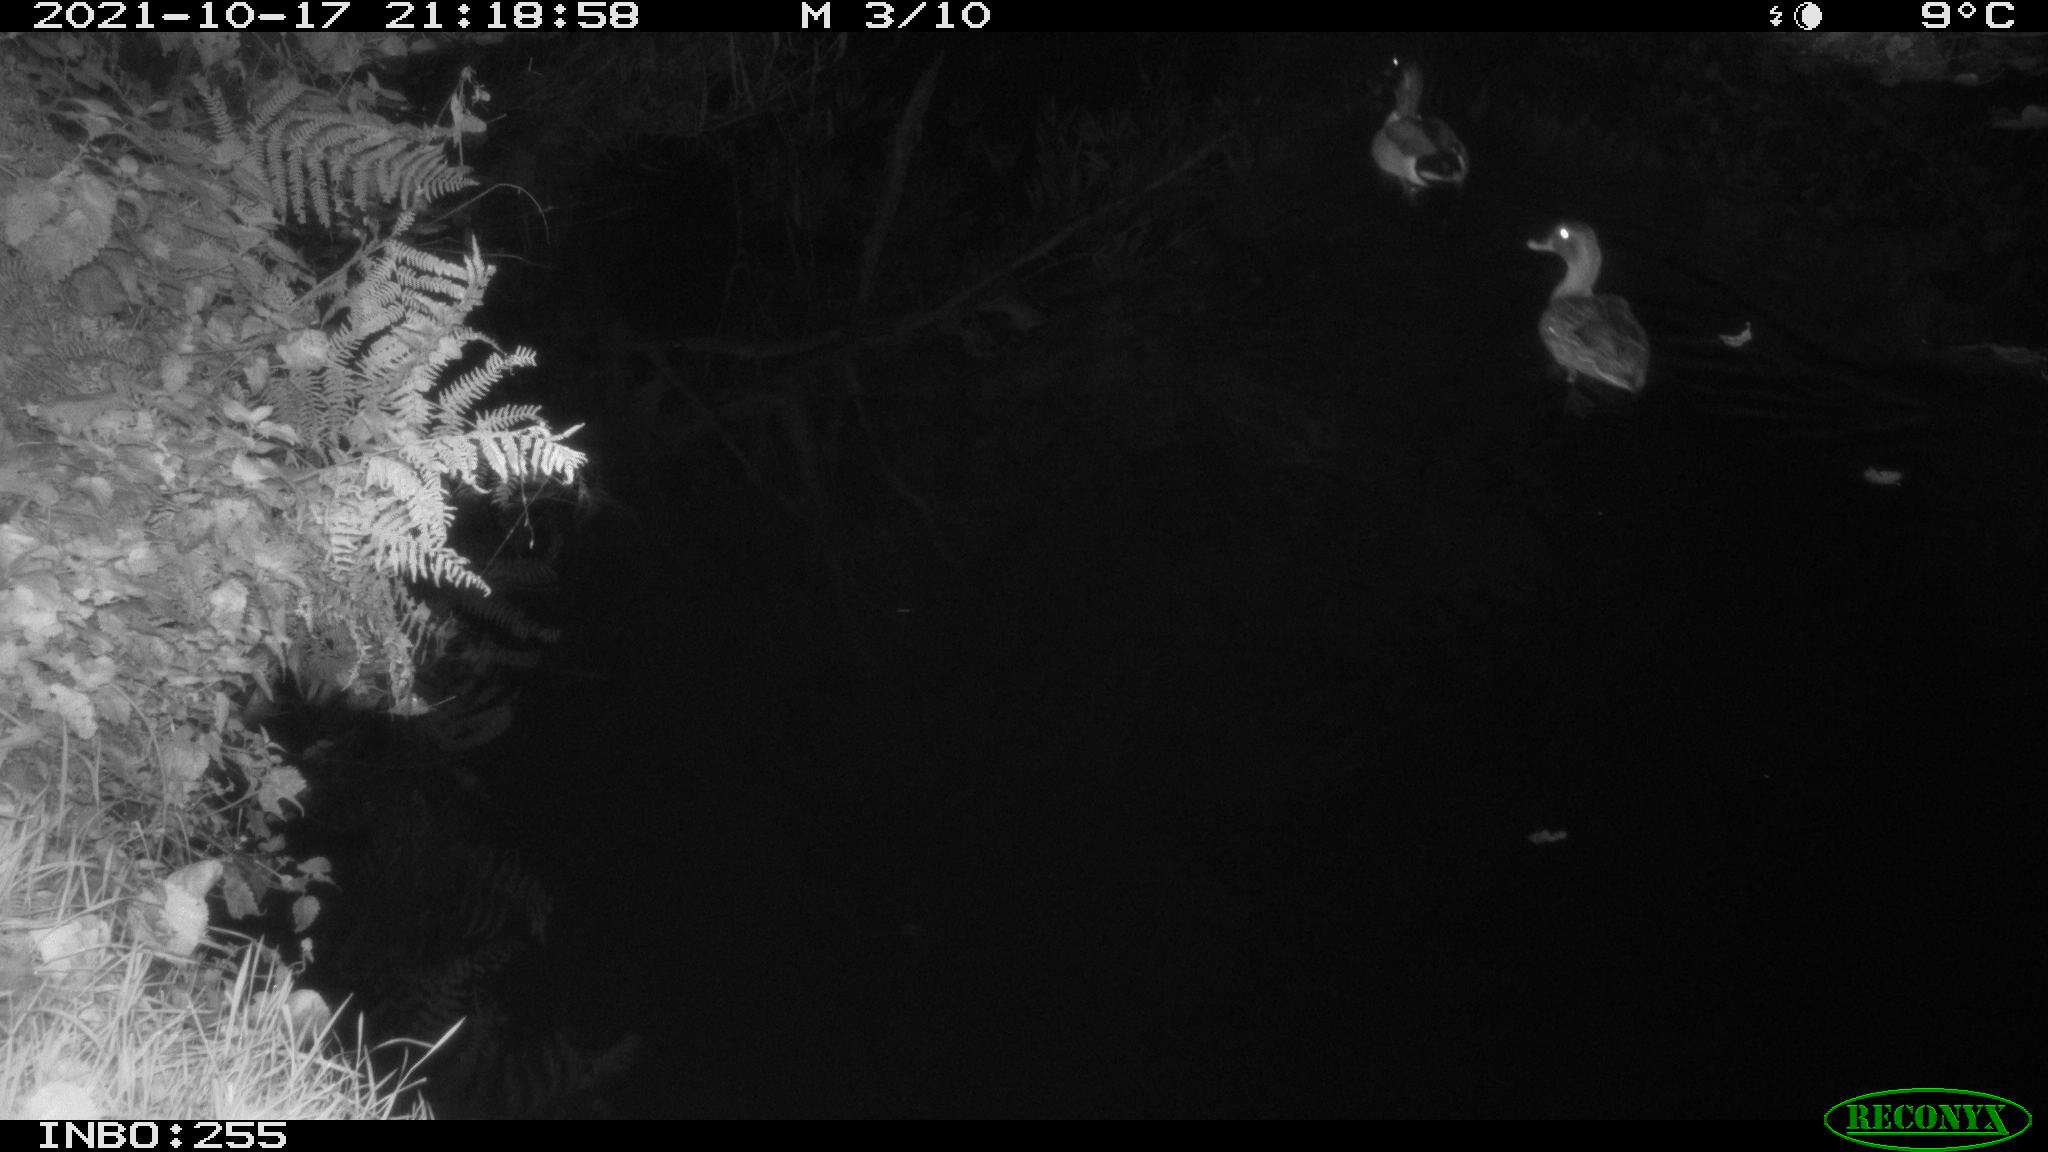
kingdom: Animalia
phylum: Chordata
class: Aves
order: Anseriformes
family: Anatidae
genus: Anas
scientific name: Anas platyrhynchos
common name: Mallard
